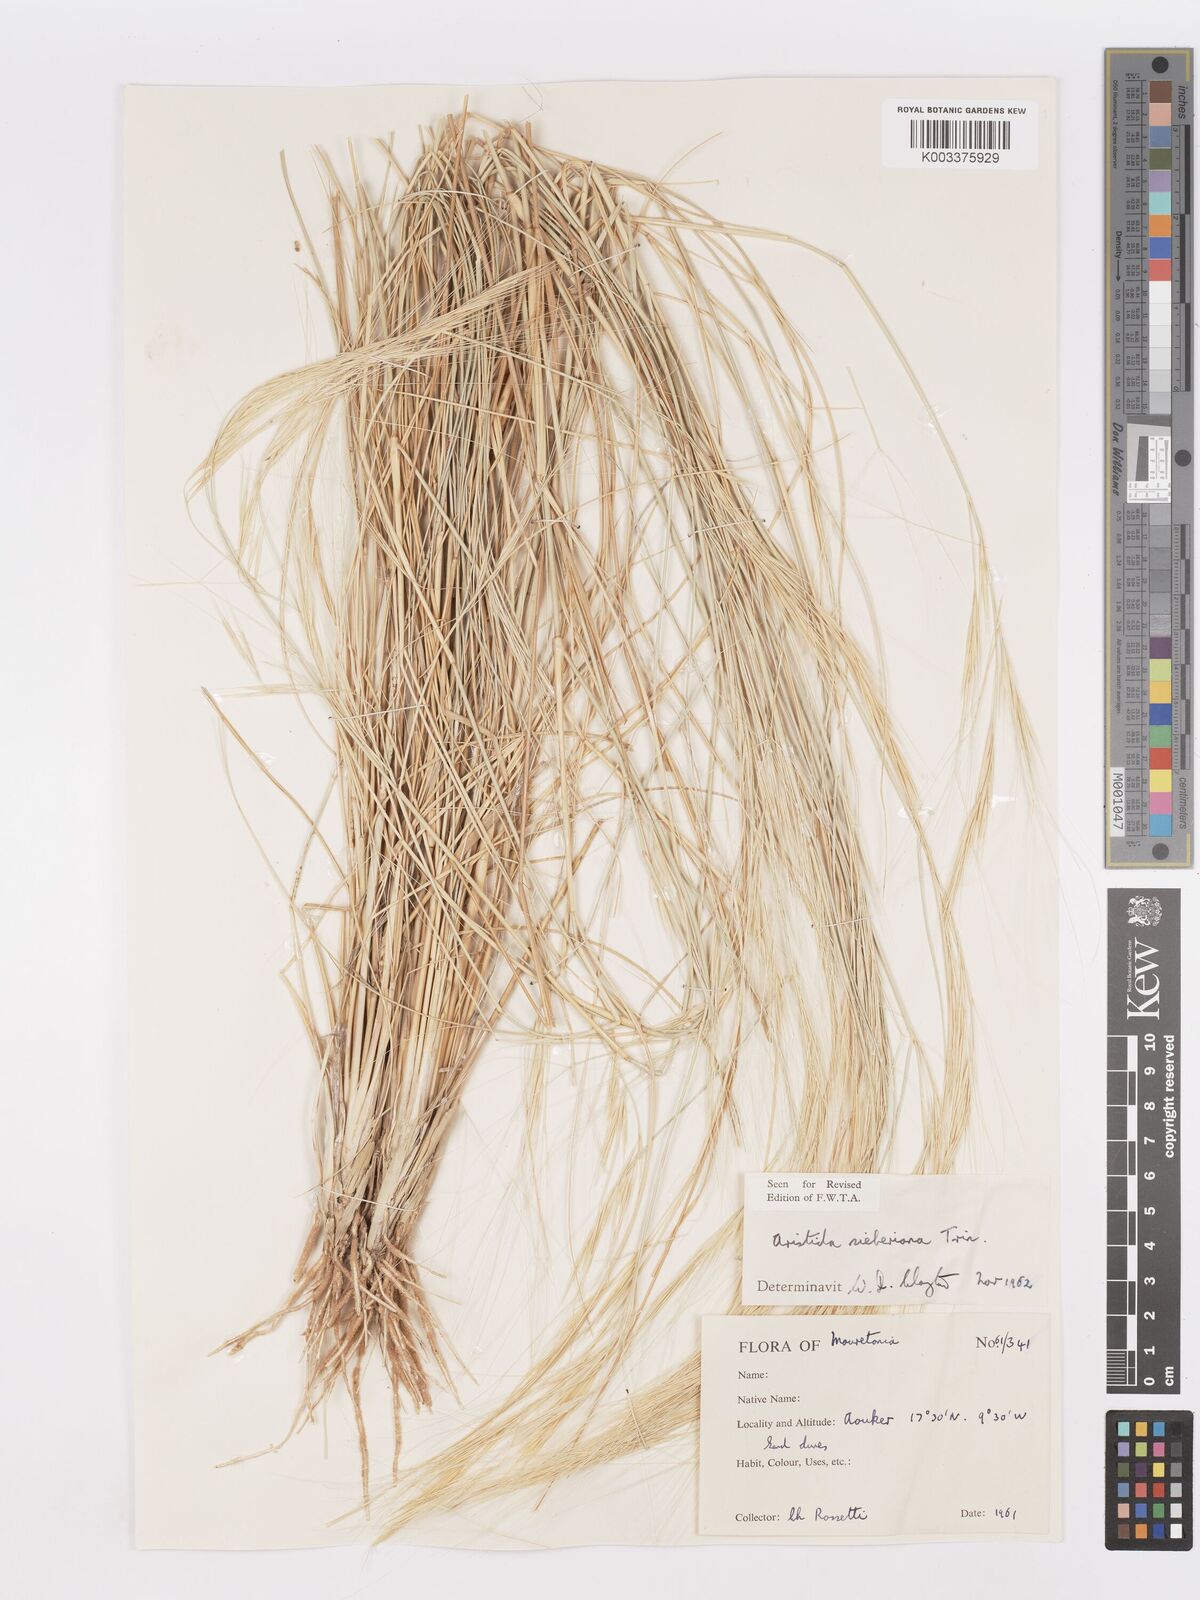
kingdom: Plantae
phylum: Tracheophyta
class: Liliopsida
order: Poales
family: Poaceae
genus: Aristida
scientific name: Aristida sieberiana
